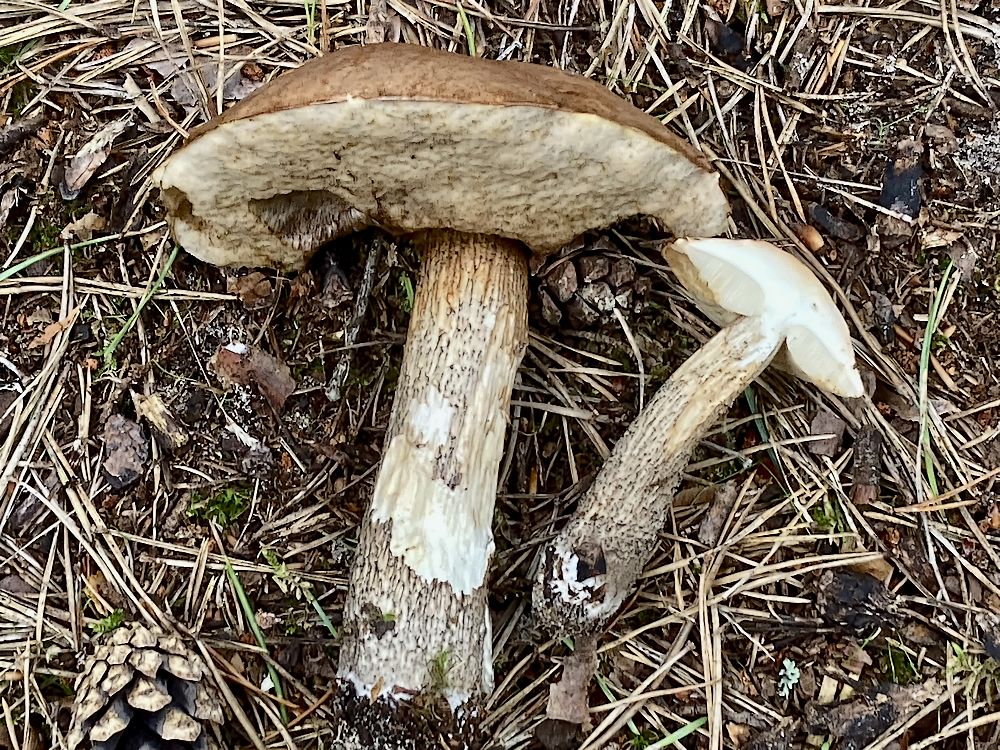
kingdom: Fungi
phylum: Basidiomycota
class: Agaricomycetes
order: Boletales
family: Boletaceae
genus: Leccinum
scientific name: Leccinum scabrum
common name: brun skælrørhat
